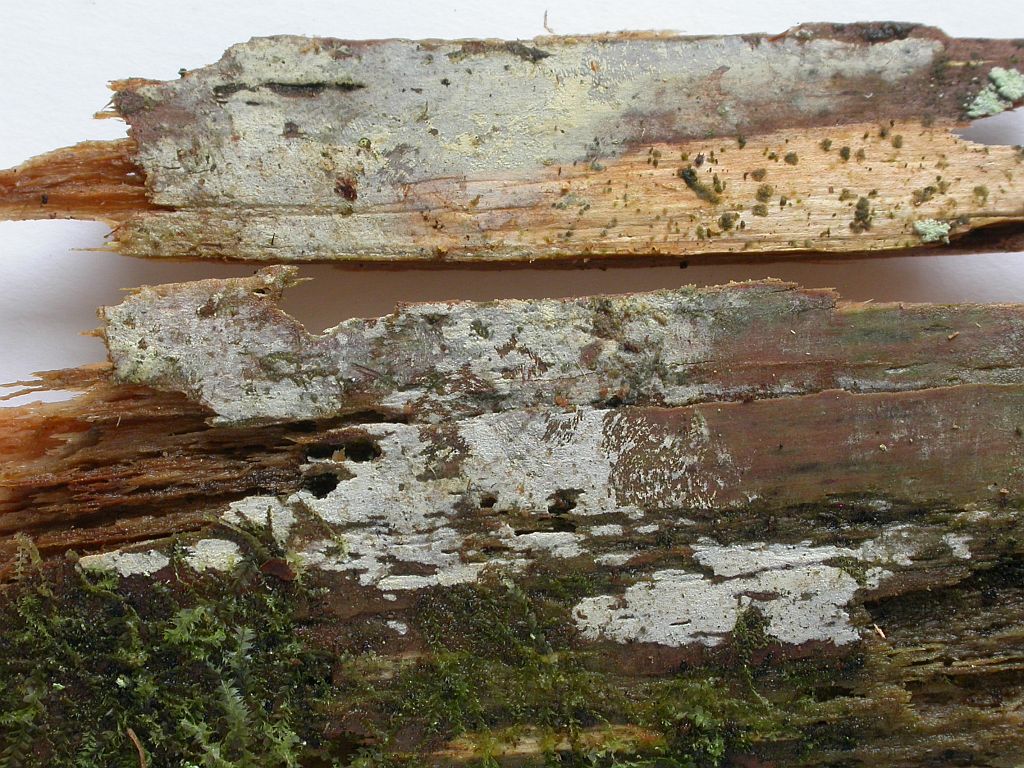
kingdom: Fungi
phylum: Basidiomycota
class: Agaricomycetes
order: Hymenochaetales
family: Hyphodontiaceae
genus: Hyphodontia
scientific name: Hyphodontia pallidula
